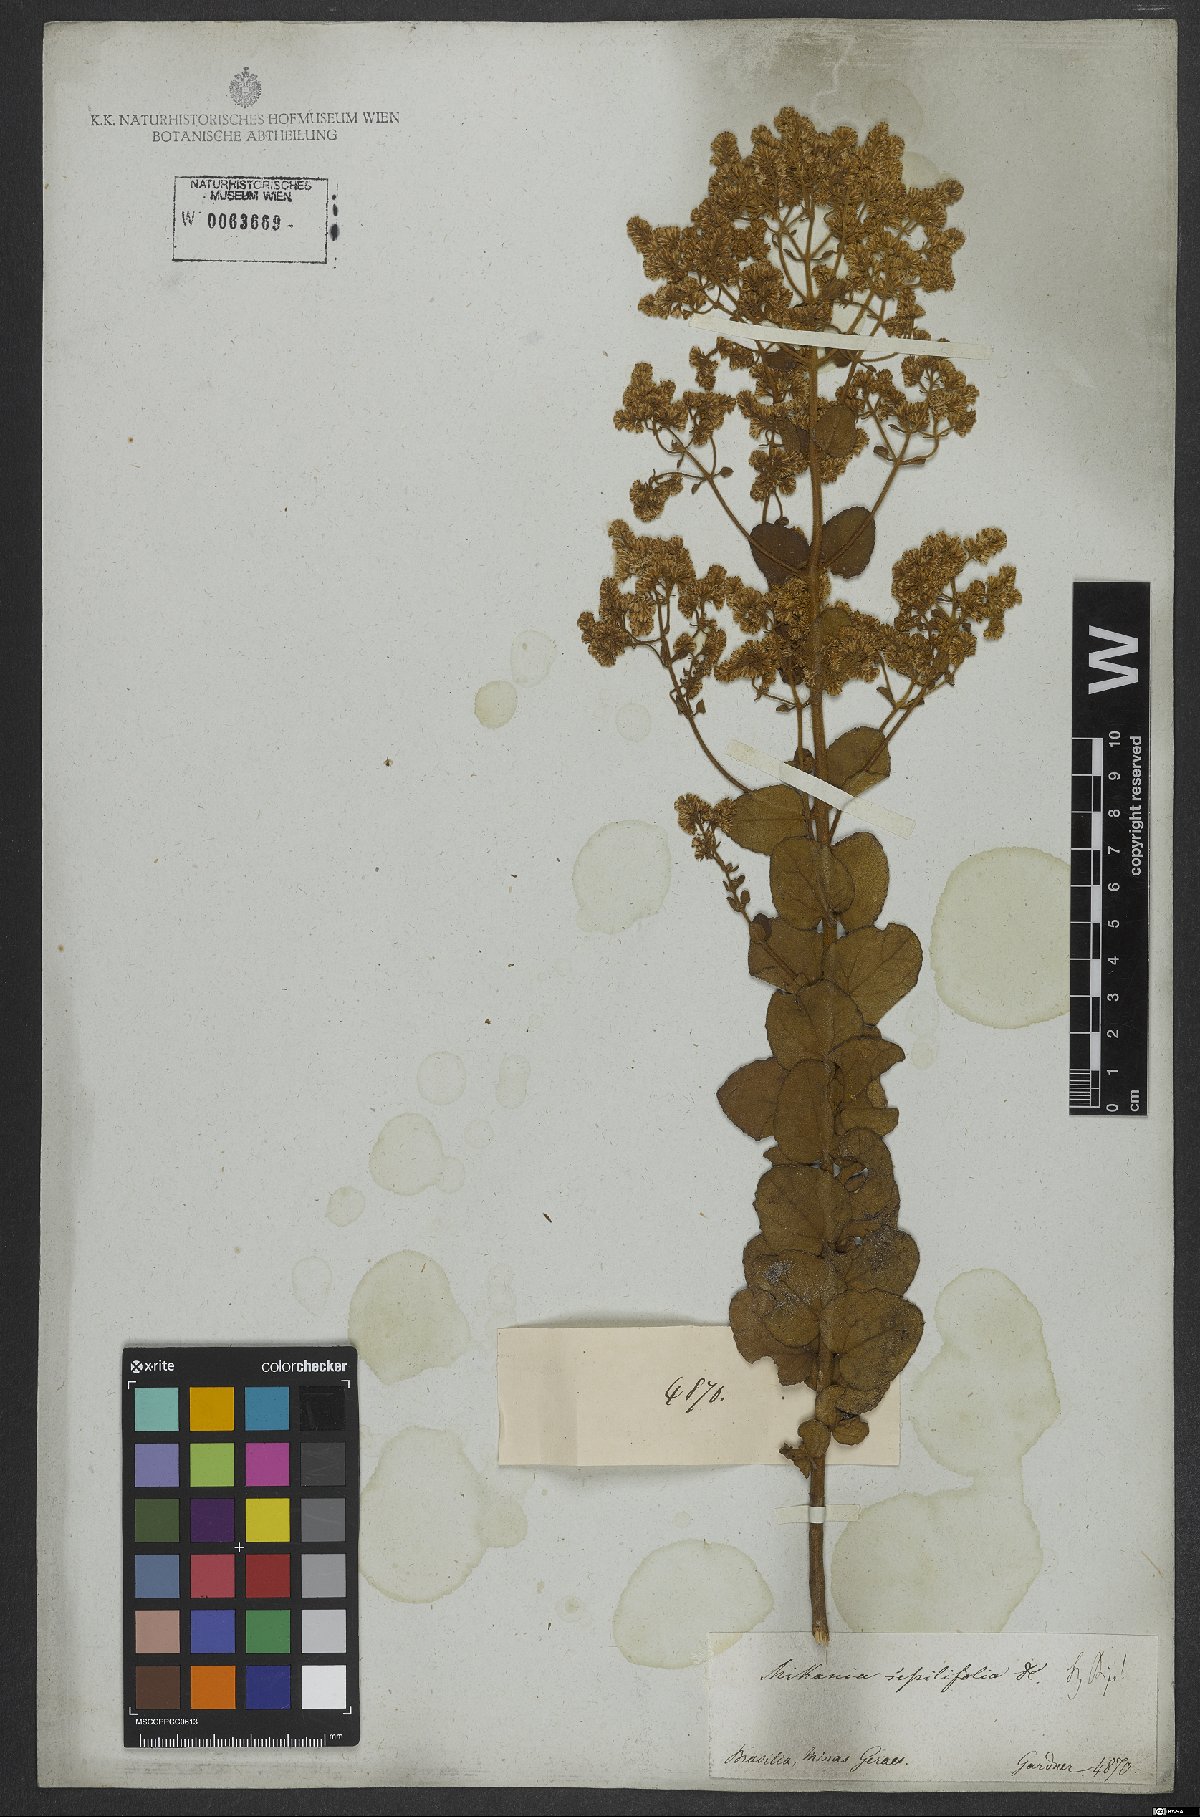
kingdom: Plantae
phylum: Tracheophyta
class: Magnoliopsida
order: Asterales
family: Asteraceae
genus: Mikania
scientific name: Mikania sessilifolia
